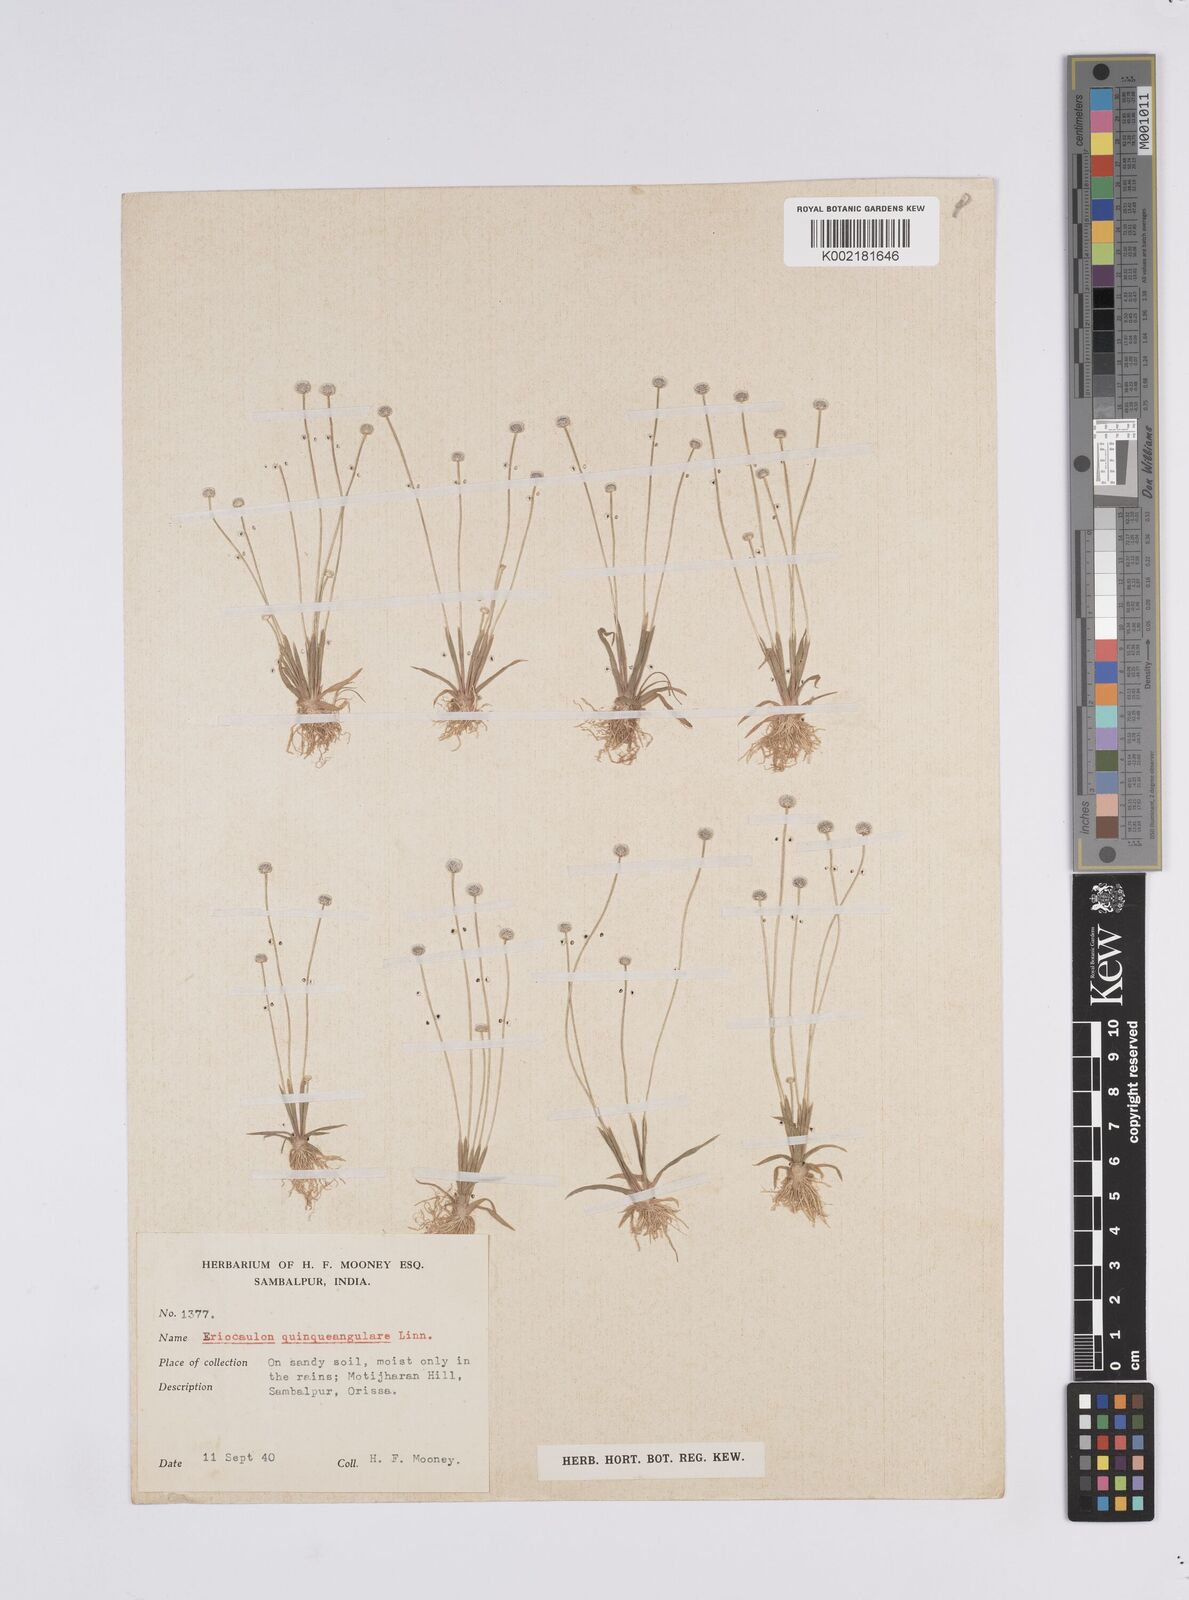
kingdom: Plantae
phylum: Tracheophyta
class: Liliopsida
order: Poales
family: Eriocaulaceae
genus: Eriocaulon
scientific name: Eriocaulon quinquangulare
